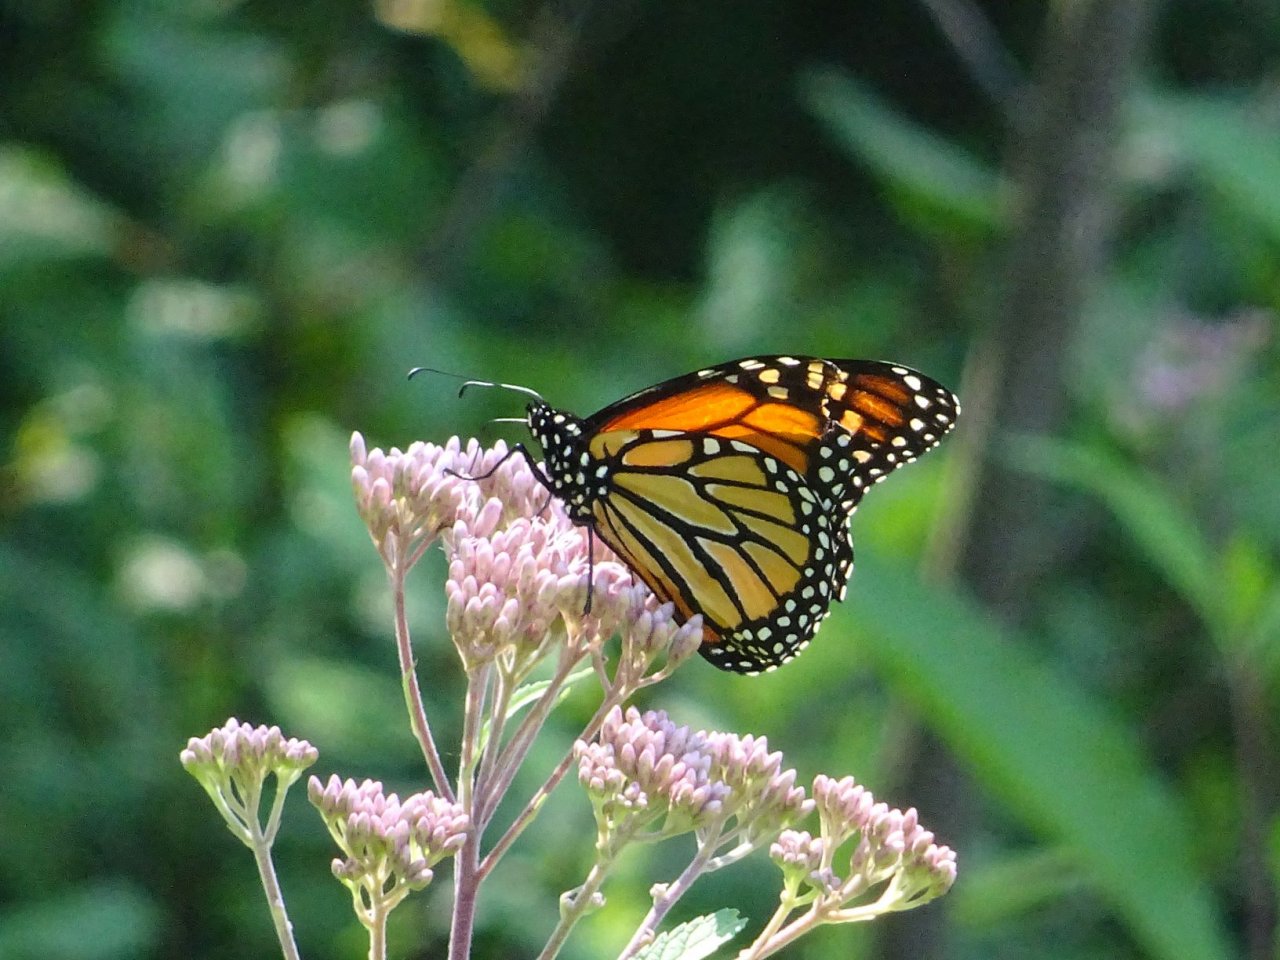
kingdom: Animalia
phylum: Arthropoda
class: Insecta
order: Lepidoptera
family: Nymphalidae
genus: Danaus
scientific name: Danaus plexippus
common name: Monarch
